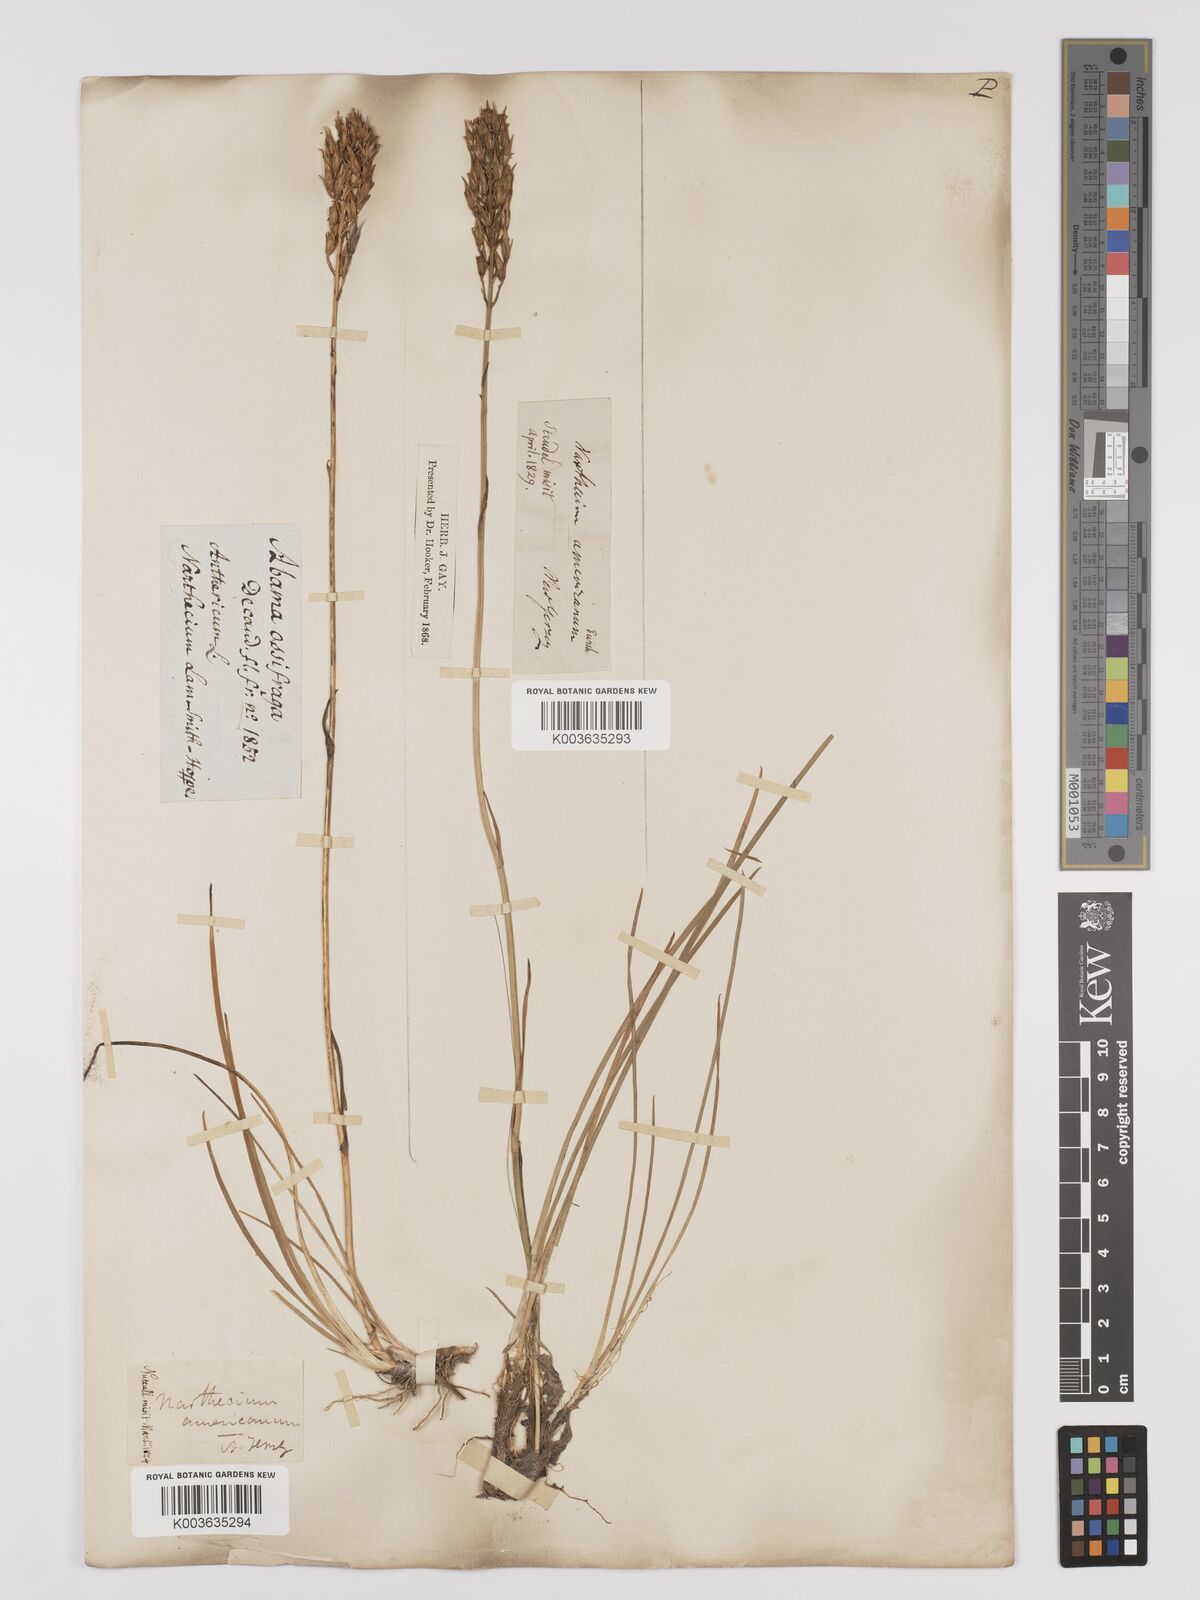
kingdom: Plantae
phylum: Tracheophyta
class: Liliopsida
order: Dioscoreales
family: Nartheciaceae
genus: Narthecium
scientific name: Narthecium americanum
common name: Bog-asphodel
